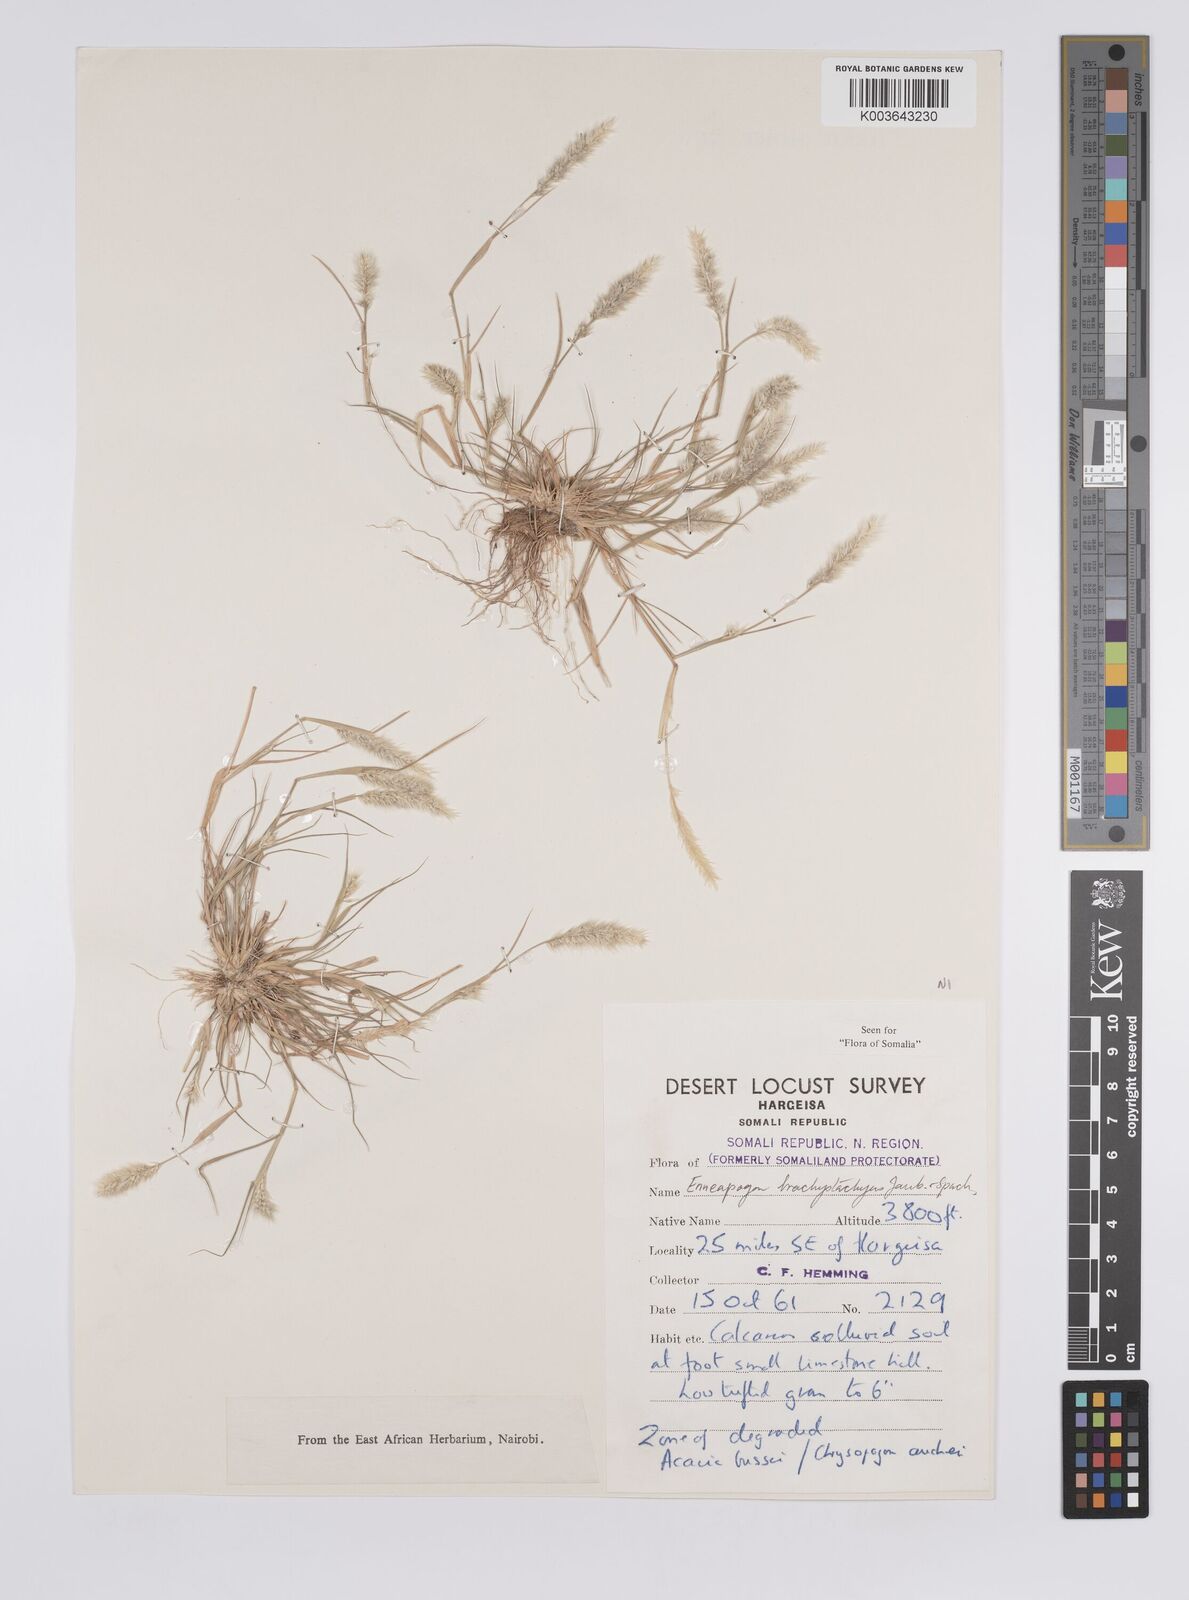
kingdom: Plantae
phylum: Tracheophyta
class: Liliopsida
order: Poales
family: Poaceae
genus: Enneapogon
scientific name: Enneapogon desvauxii
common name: Feather pappus grass
